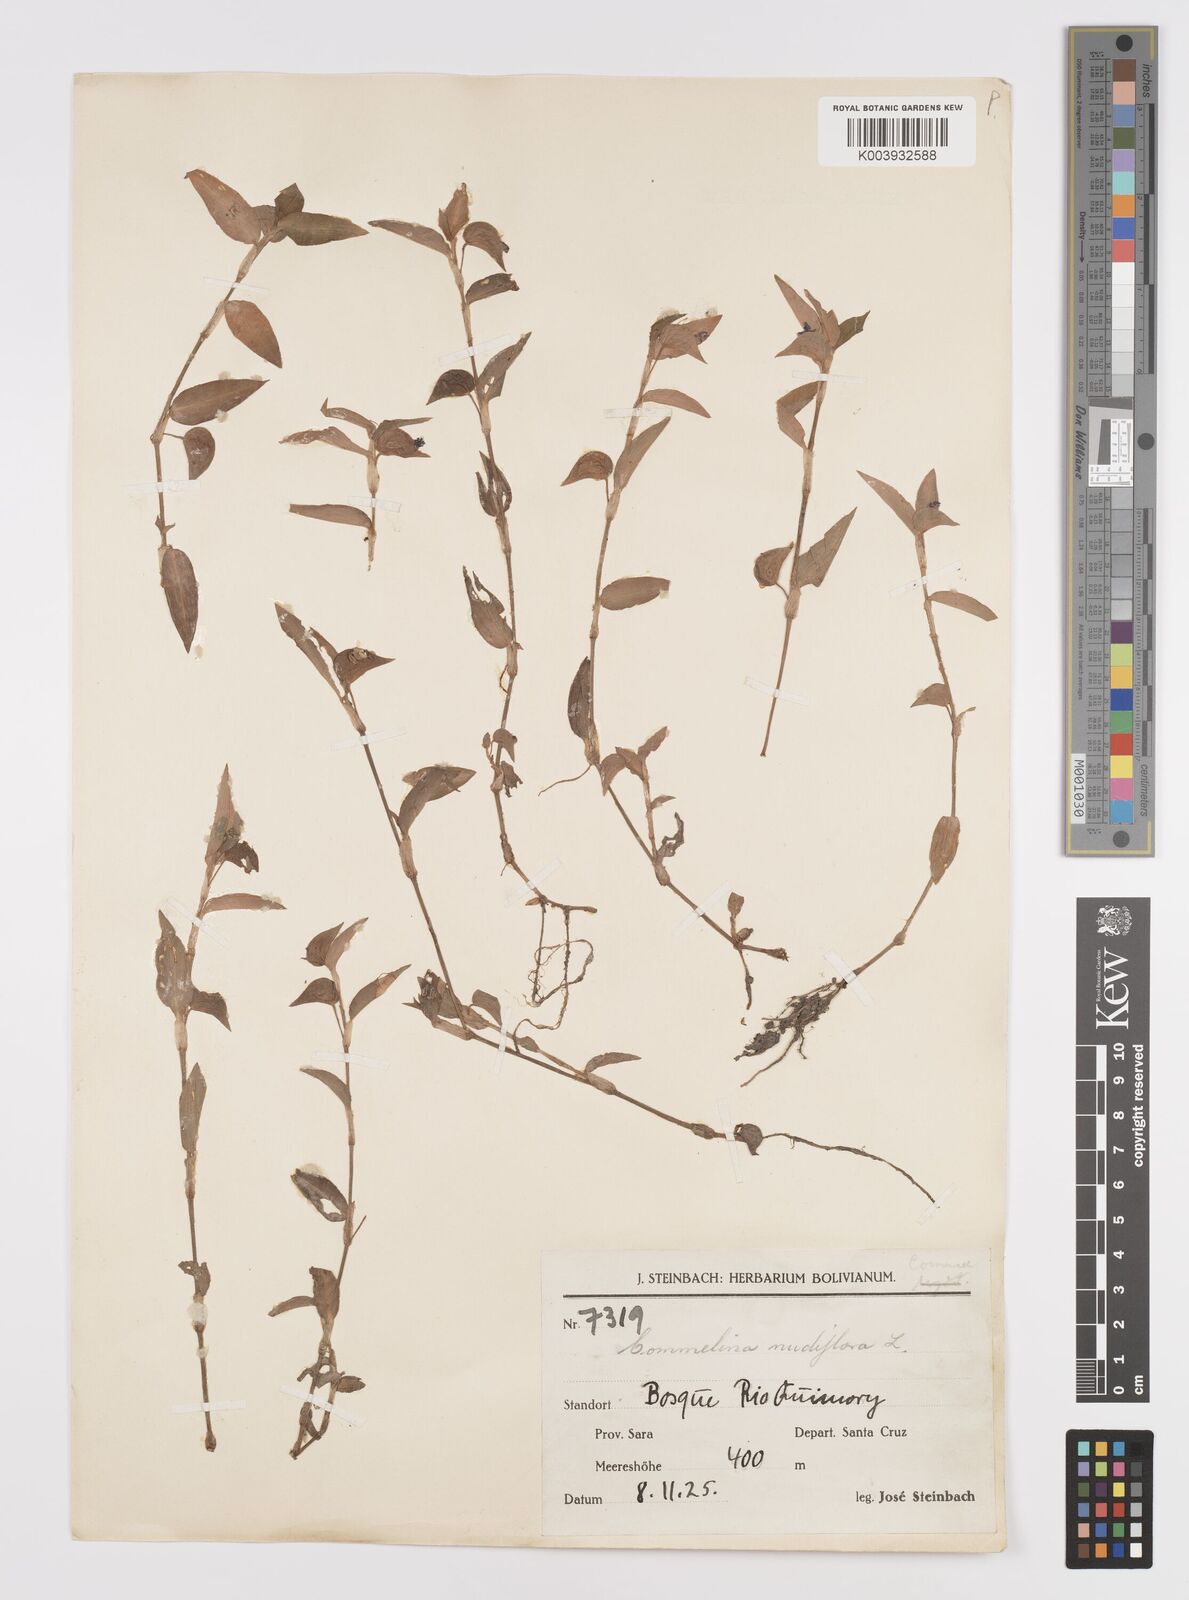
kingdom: Plantae
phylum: Tracheophyta
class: Liliopsida
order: Commelinales
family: Commelinaceae
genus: Commelina
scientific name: Commelina diffusa
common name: Climbing dayflower
